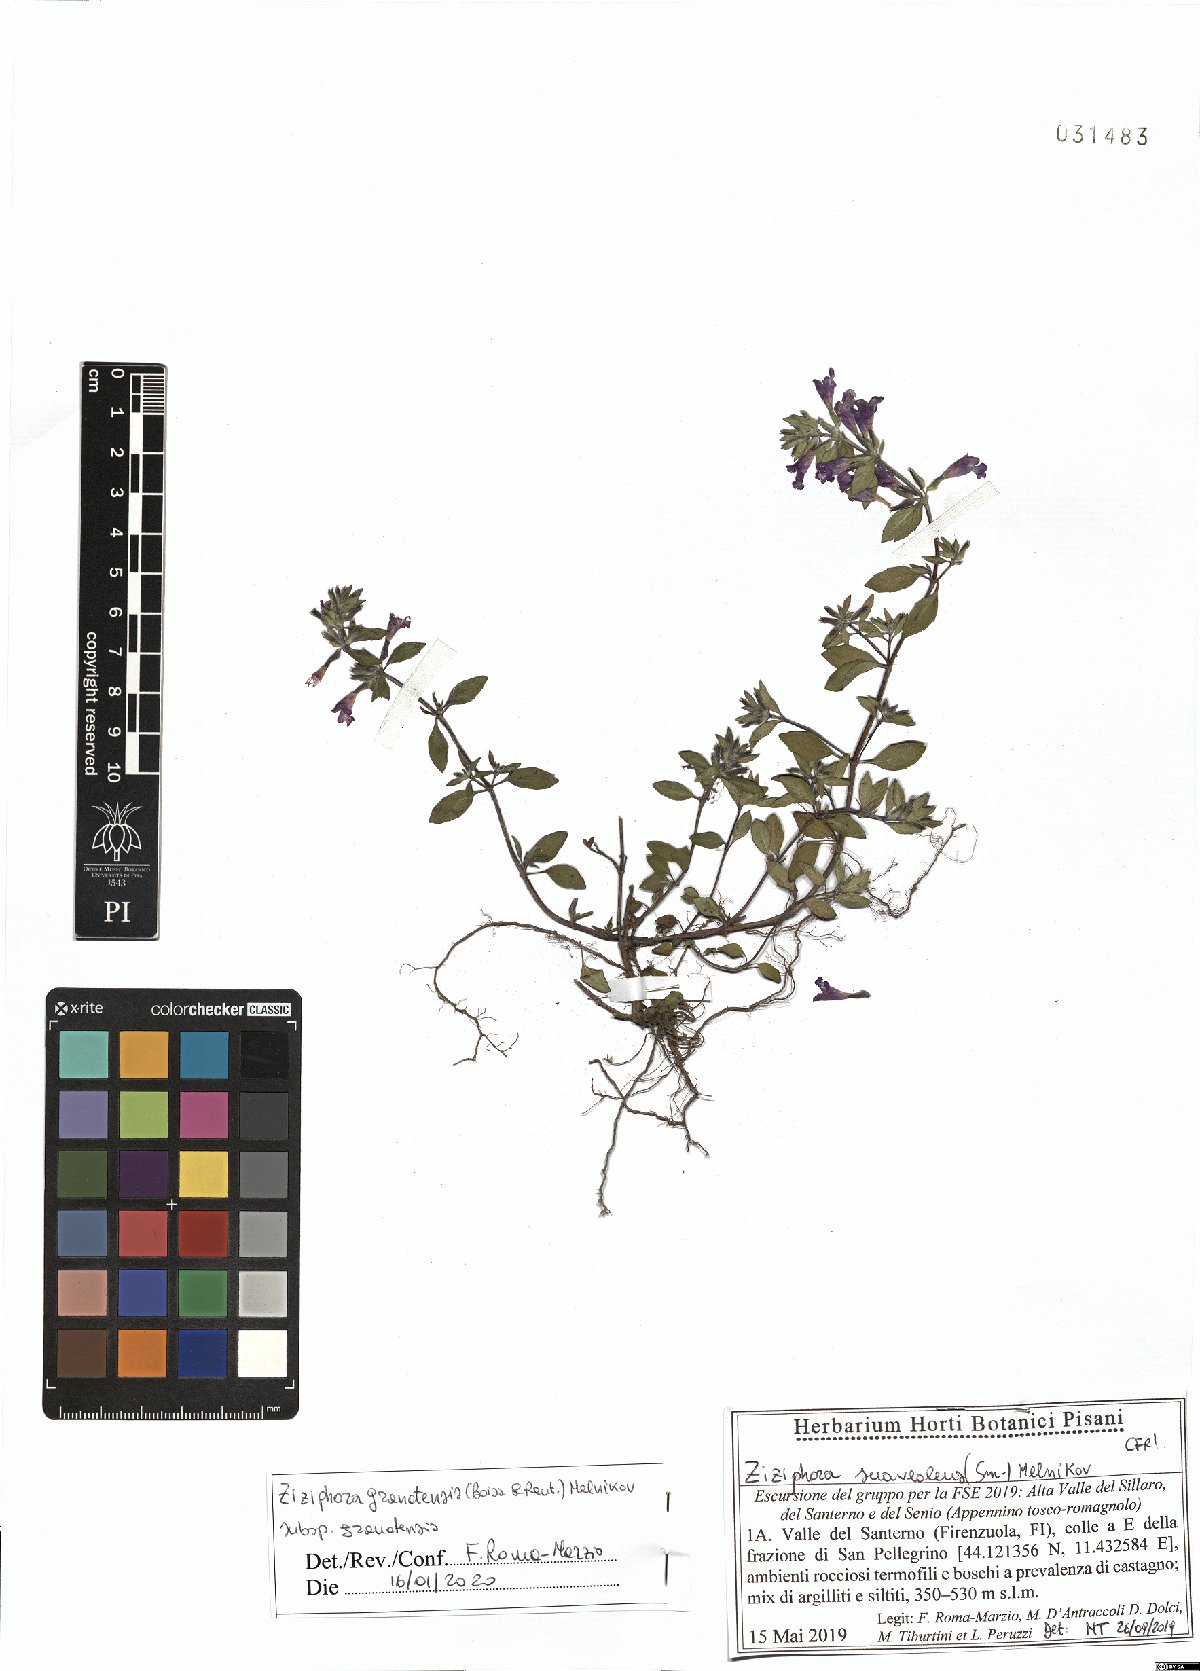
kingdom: Plantae
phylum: Tracheophyta
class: Magnoliopsida
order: Lamiales
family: Lamiaceae
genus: Clinopodium
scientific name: Clinopodium alpinum
